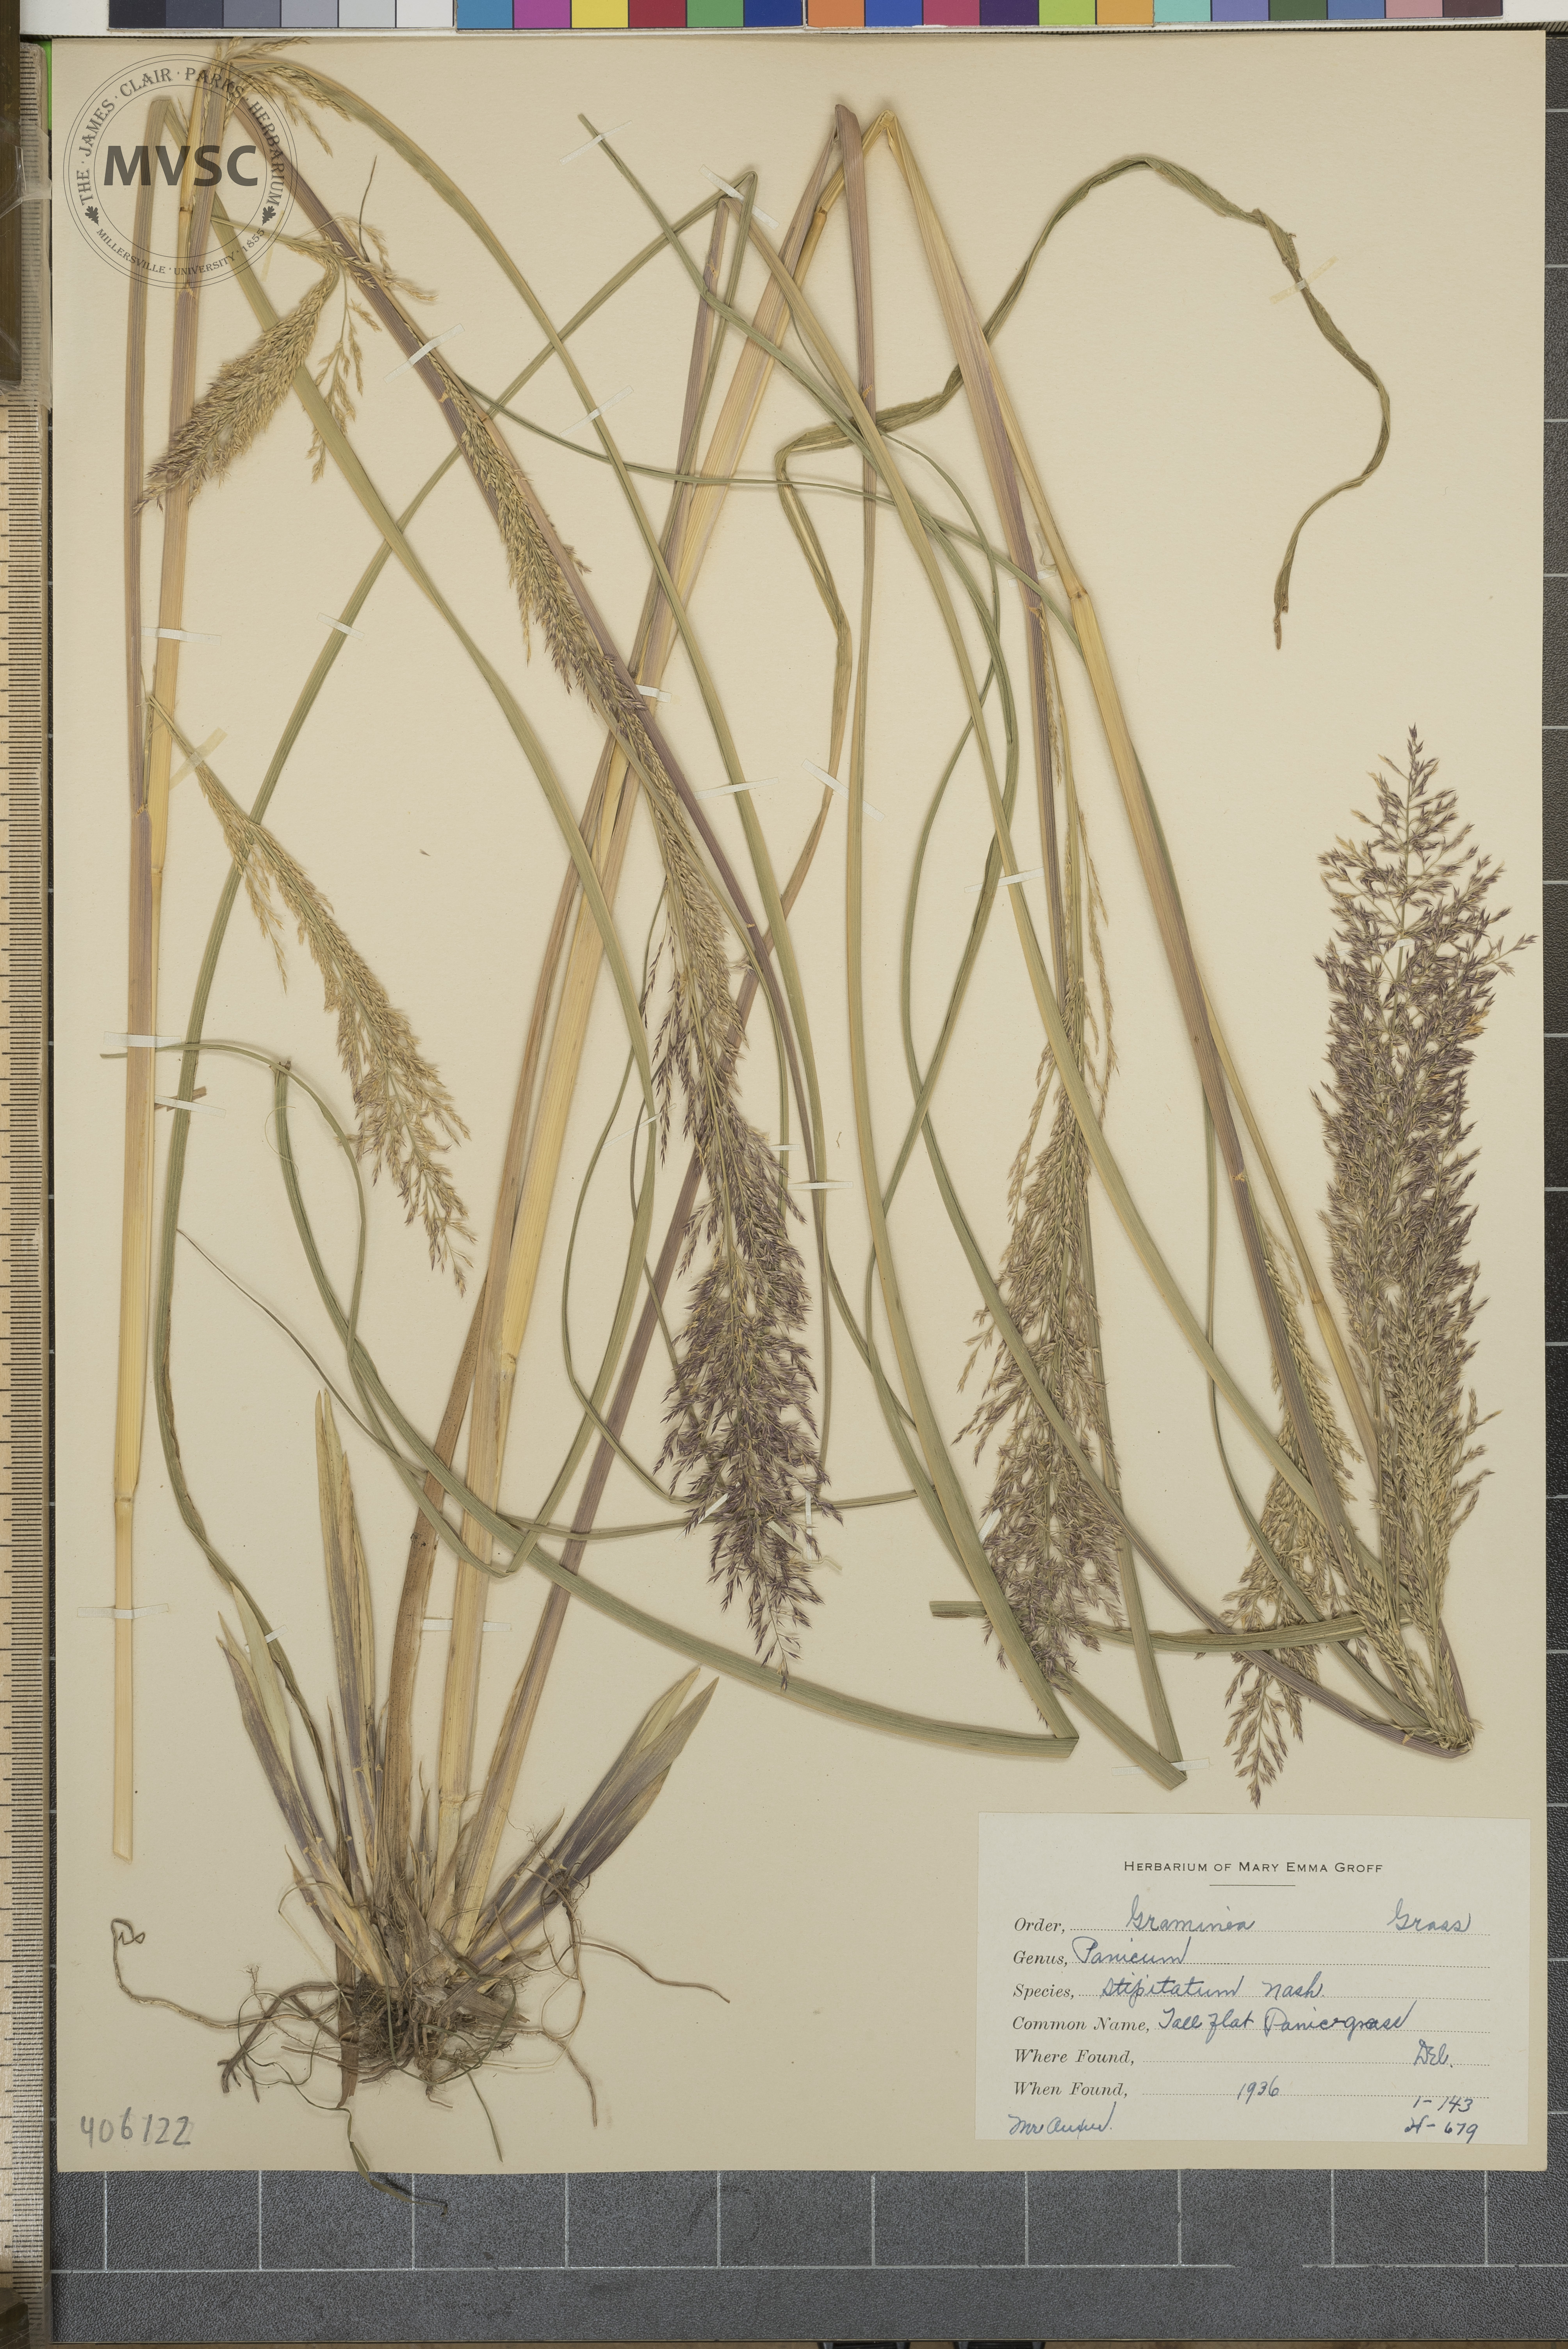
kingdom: Plantae
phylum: Tracheophyta
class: Liliopsida
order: Poales
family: Poaceae
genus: Coleataenia
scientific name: Coleataenia pulchra
